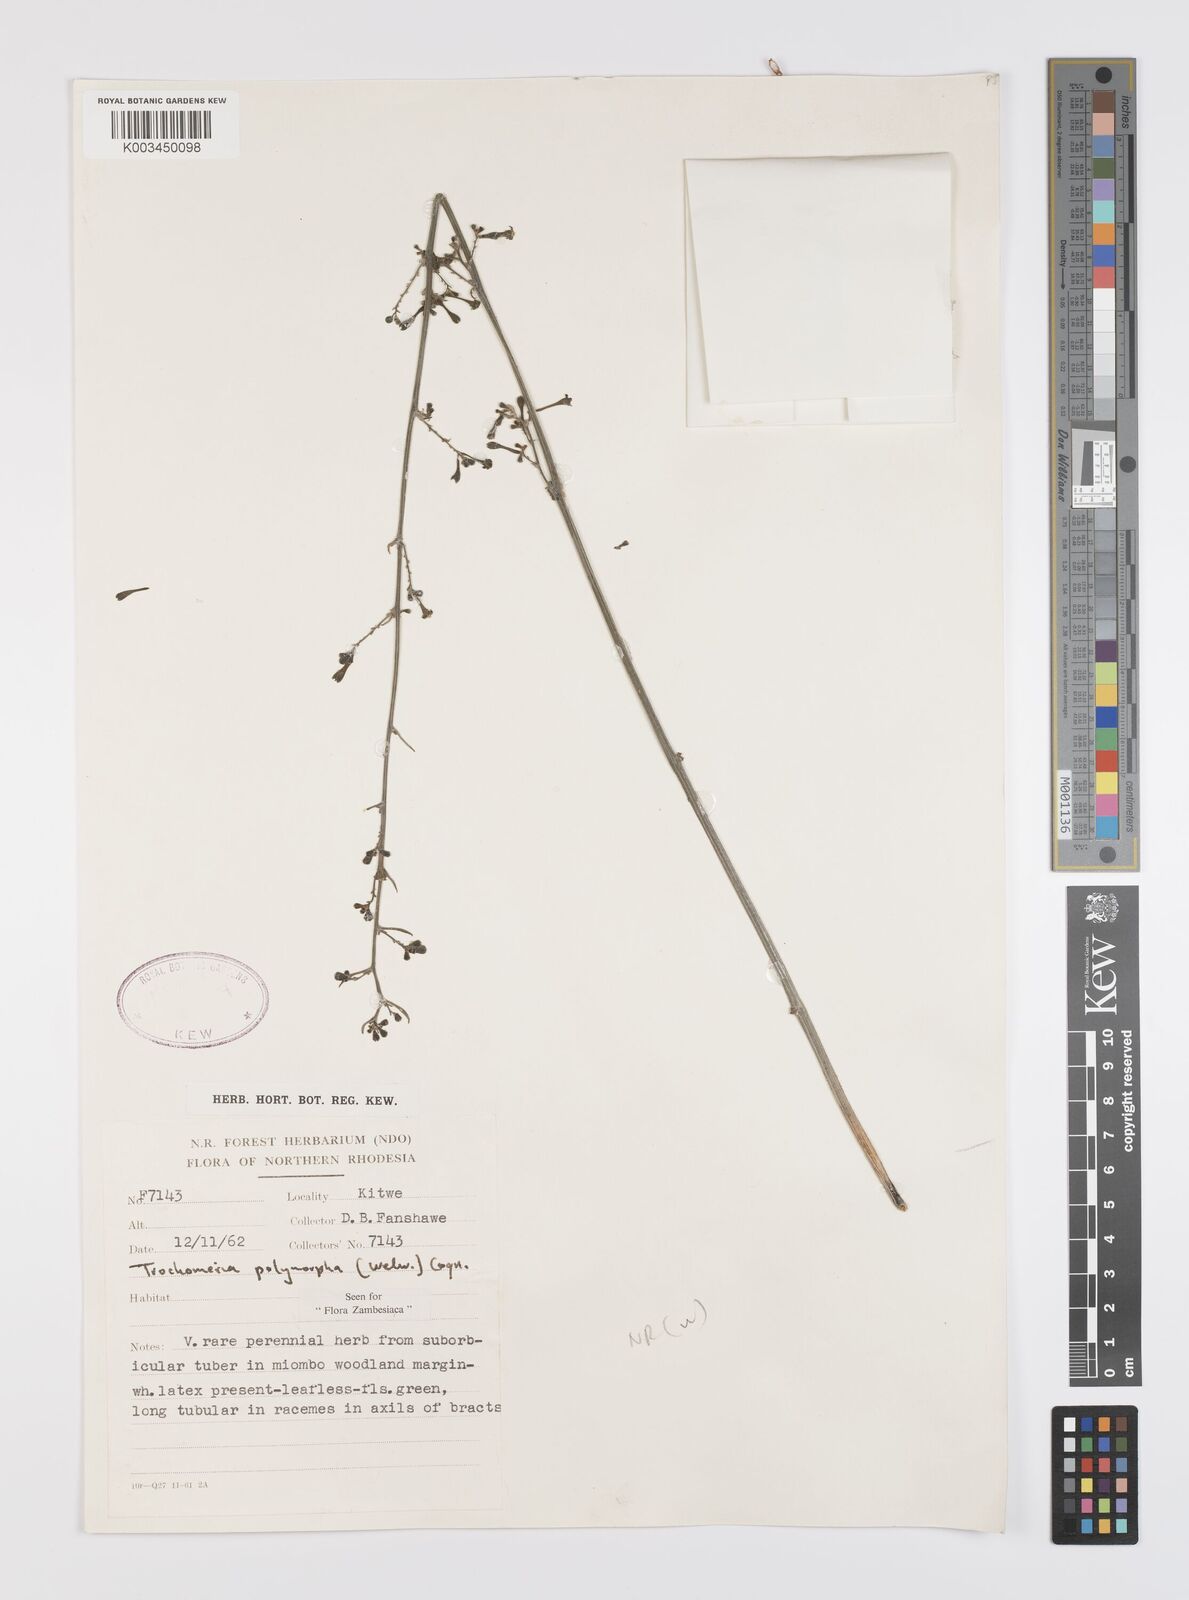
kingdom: Plantae
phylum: Tracheophyta
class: Magnoliopsida
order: Cucurbitales
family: Cucurbitaceae
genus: Trochomeria
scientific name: Trochomeria polymorpha
